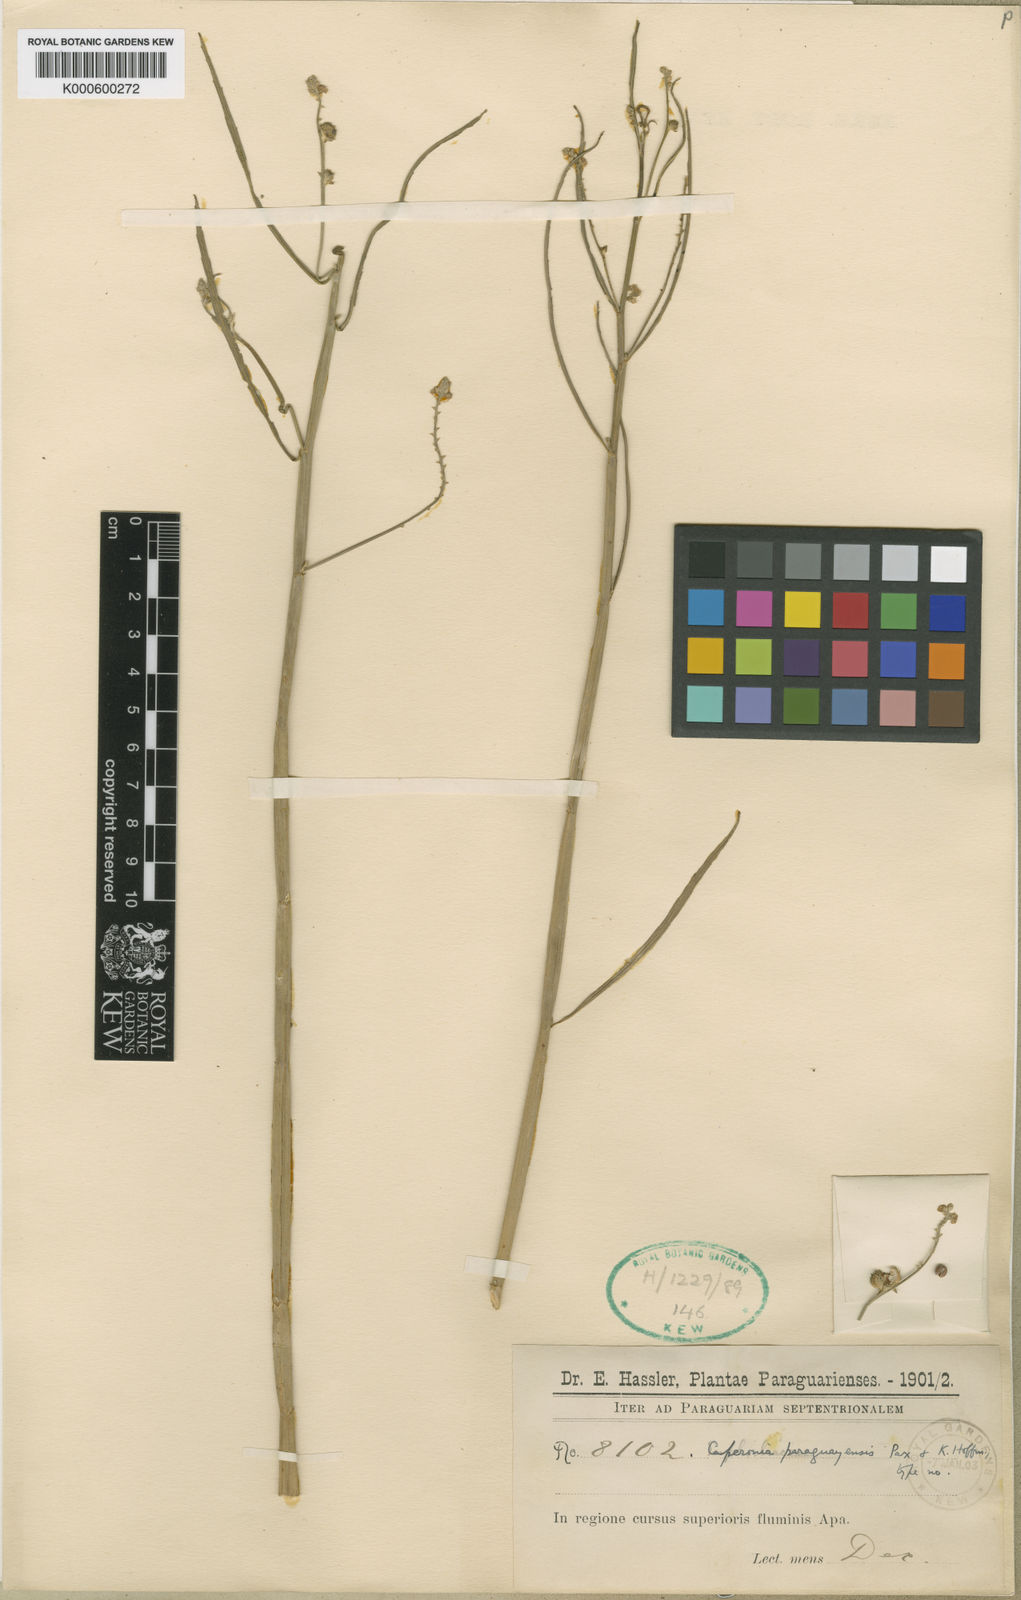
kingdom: Plantae
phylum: Tracheophyta
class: Magnoliopsida
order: Malpighiales
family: Euphorbiaceae
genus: Caperonia
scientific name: Caperonia paraguayensis
